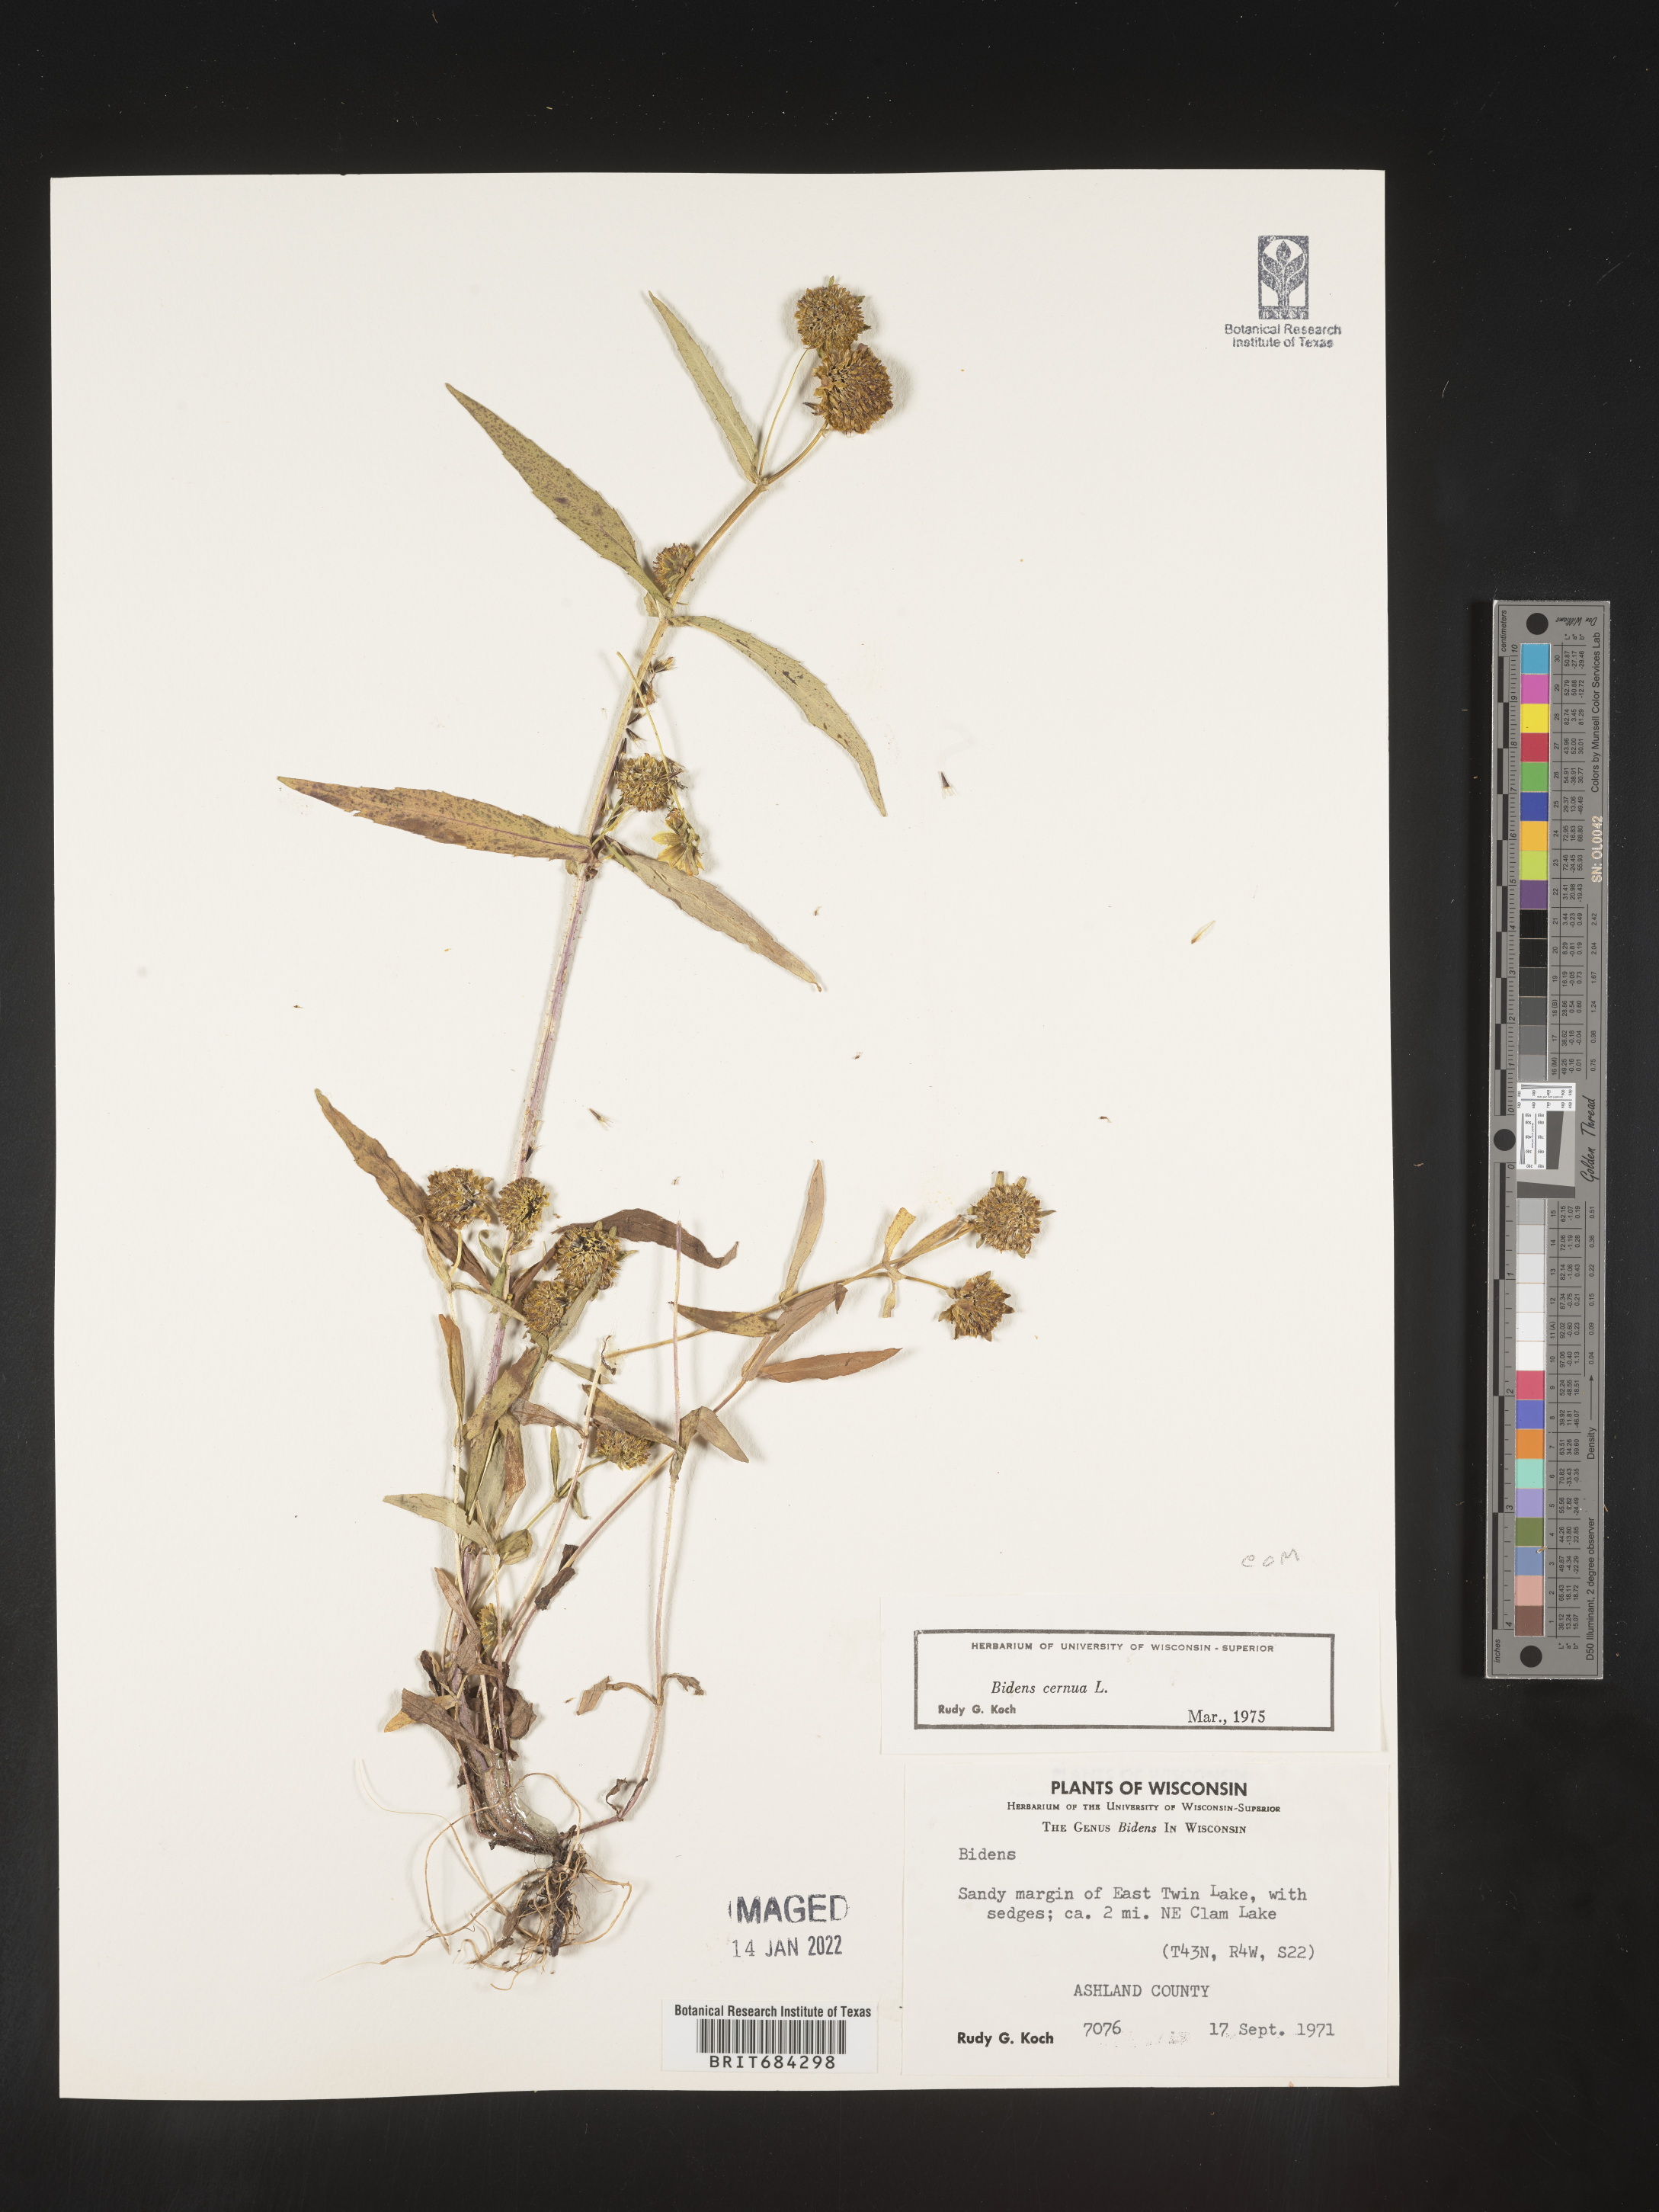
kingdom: Plantae
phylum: Tracheophyta
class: Magnoliopsida
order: Asterales
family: Asteraceae
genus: Bidens
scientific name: Bidens cernua
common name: Nodding bur-marigold
